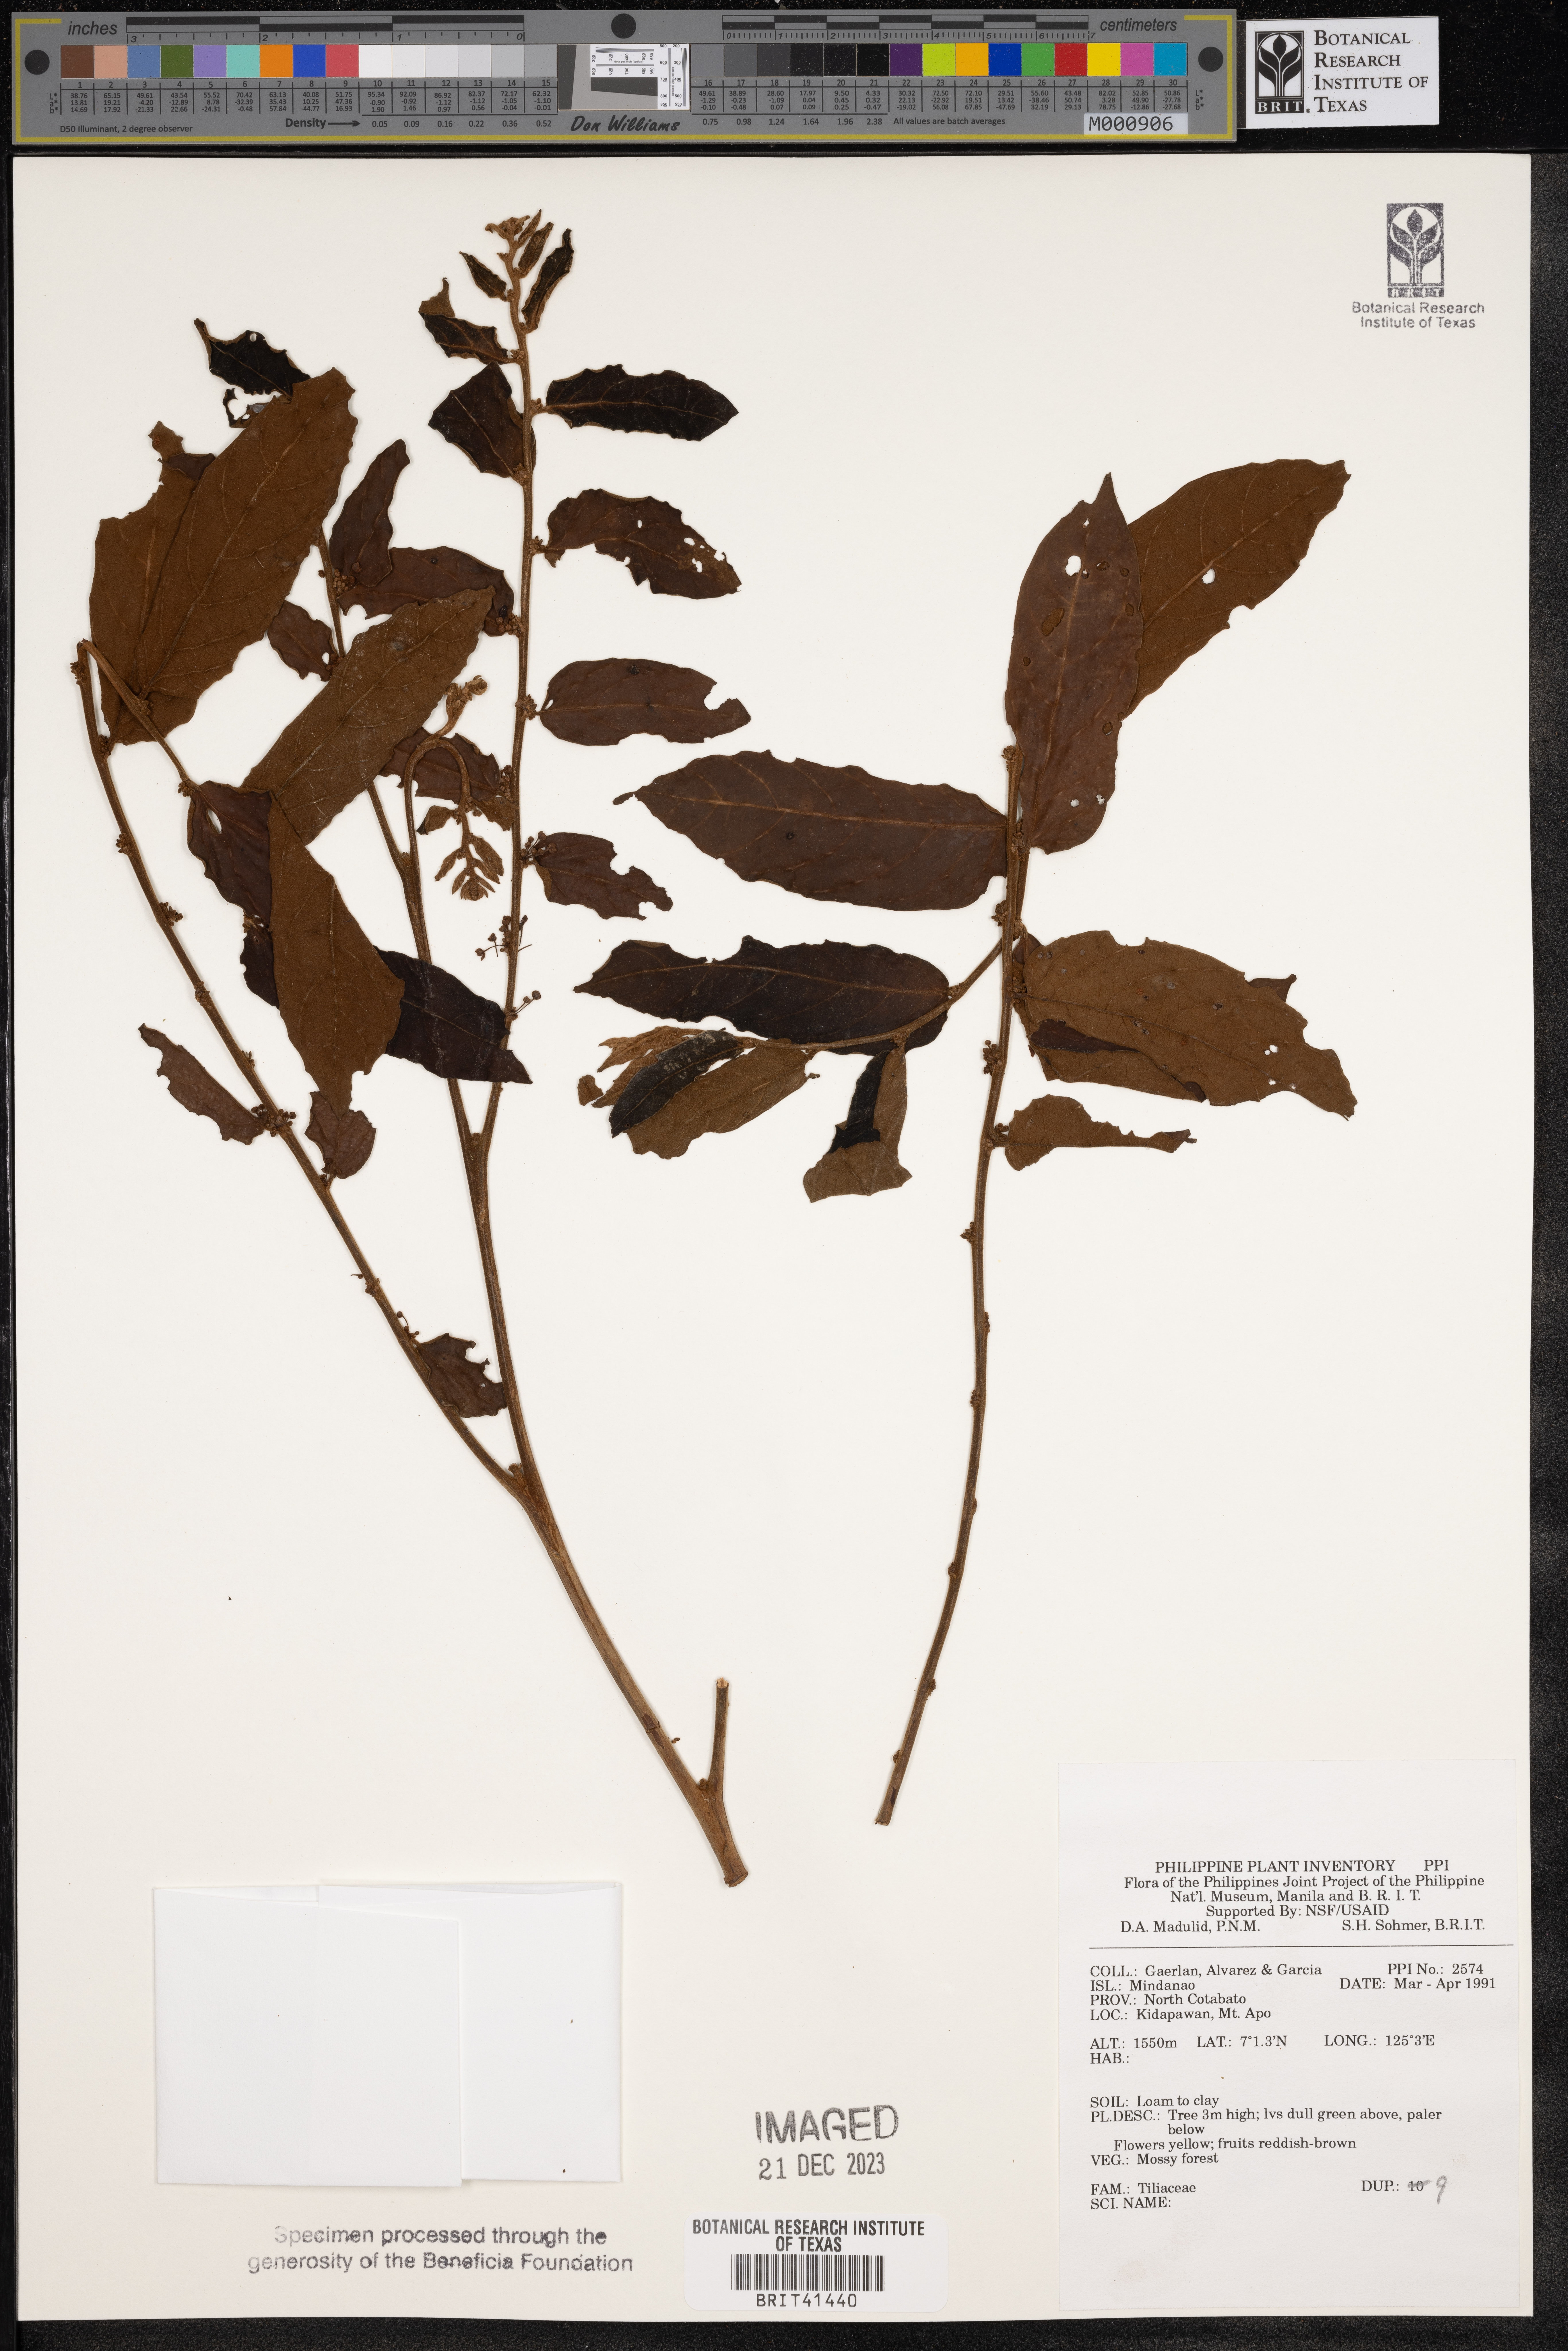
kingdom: Plantae
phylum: Tracheophyta
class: Magnoliopsida
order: Malvales
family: Tiliaceae
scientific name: Tiliaceae
